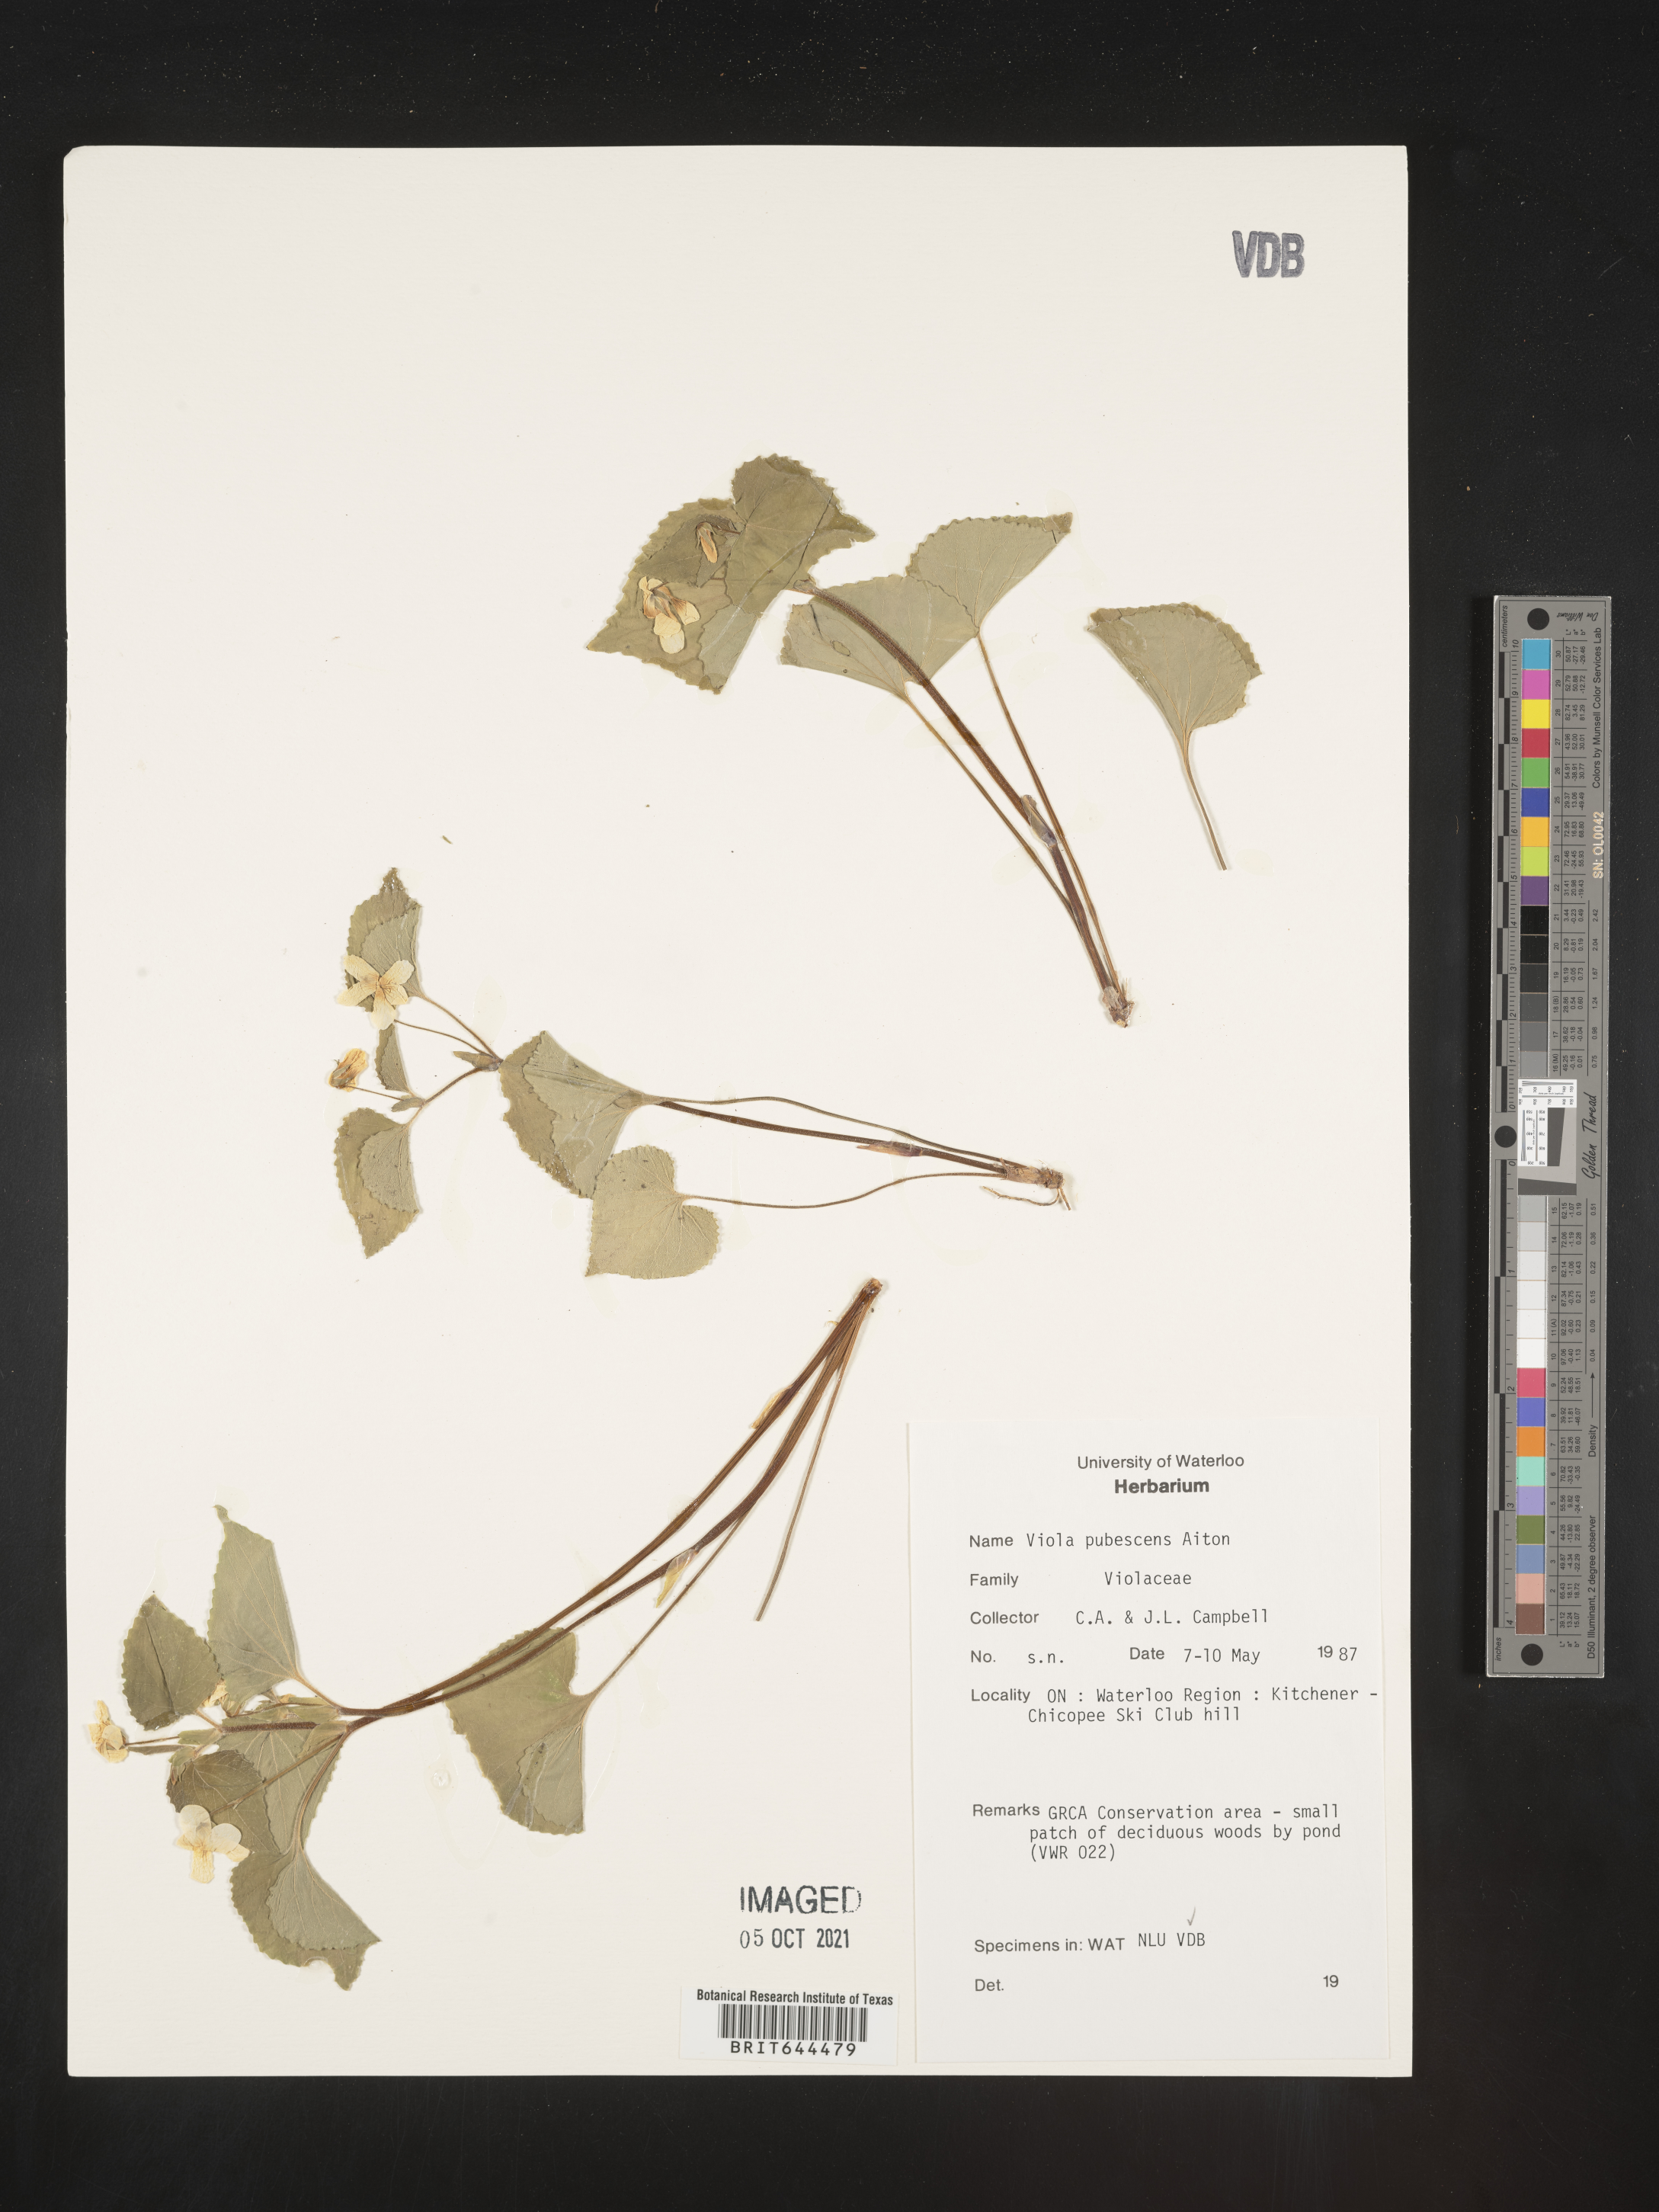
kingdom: Plantae
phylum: Tracheophyta
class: Magnoliopsida
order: Malpighiales
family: Violaceae
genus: Viola
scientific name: Viola
